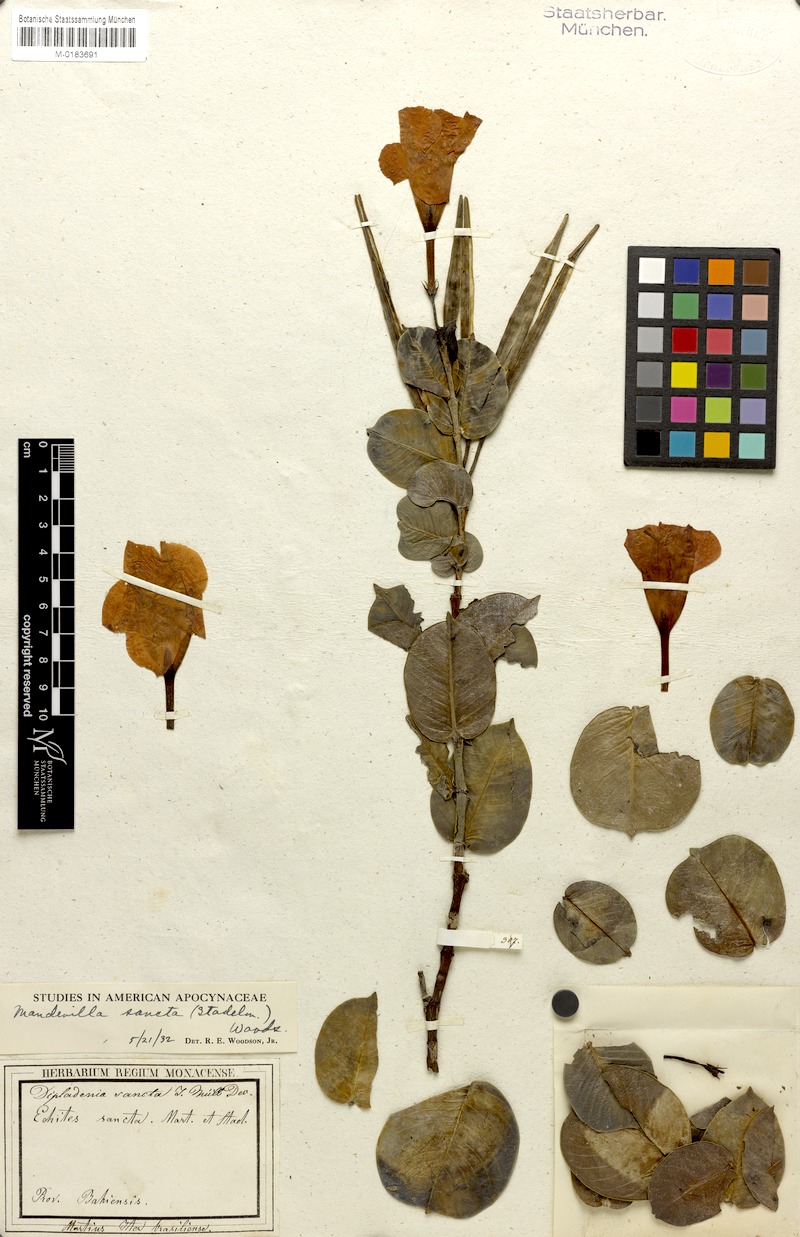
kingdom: Plantae
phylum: Tracheophyta
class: Magnoliopsida
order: Gentianales
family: Apocynaceae
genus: Mandevilla
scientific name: Mandevilla sancta
